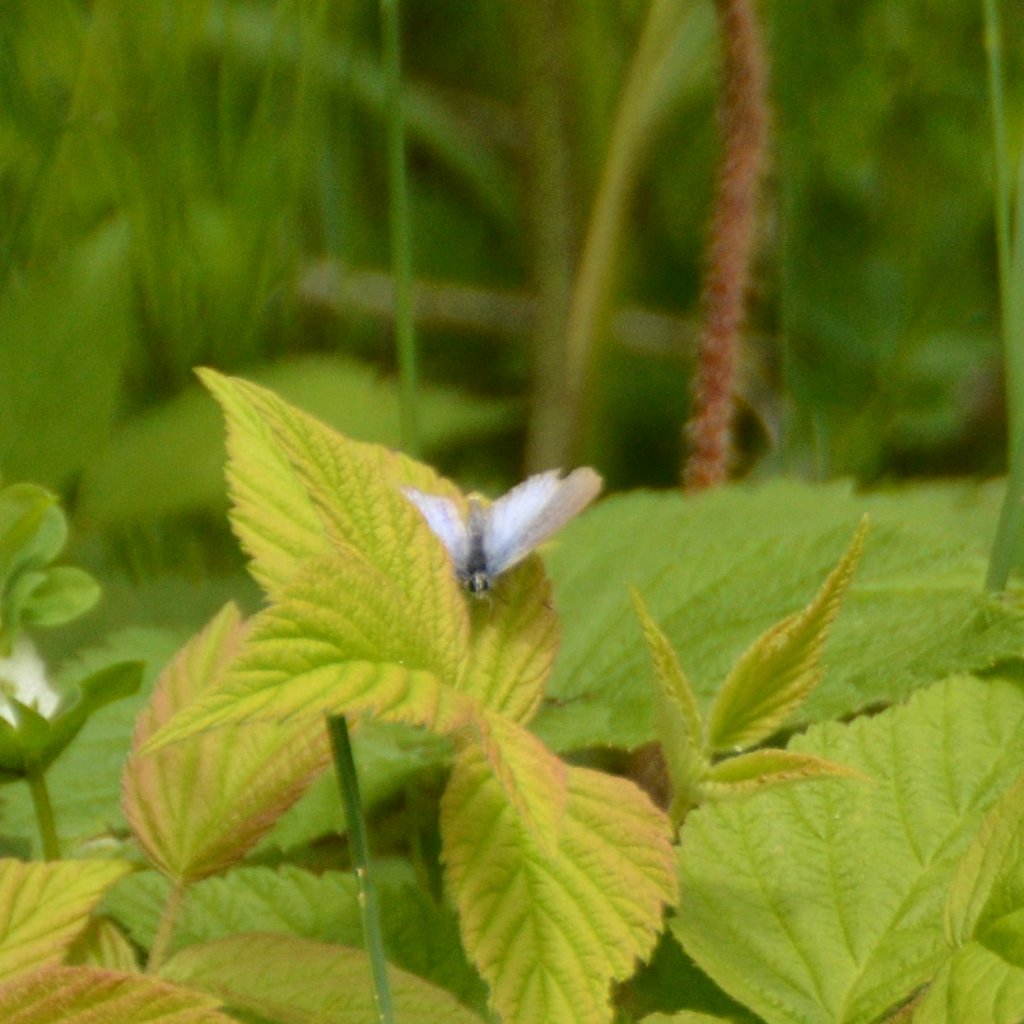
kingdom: Animalia
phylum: Arthropoda
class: Insecta
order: Lepidoptera
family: Lycaenidae
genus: Glaucopsyche
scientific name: Glaucopsyche lygdamus
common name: Silvery Blue
